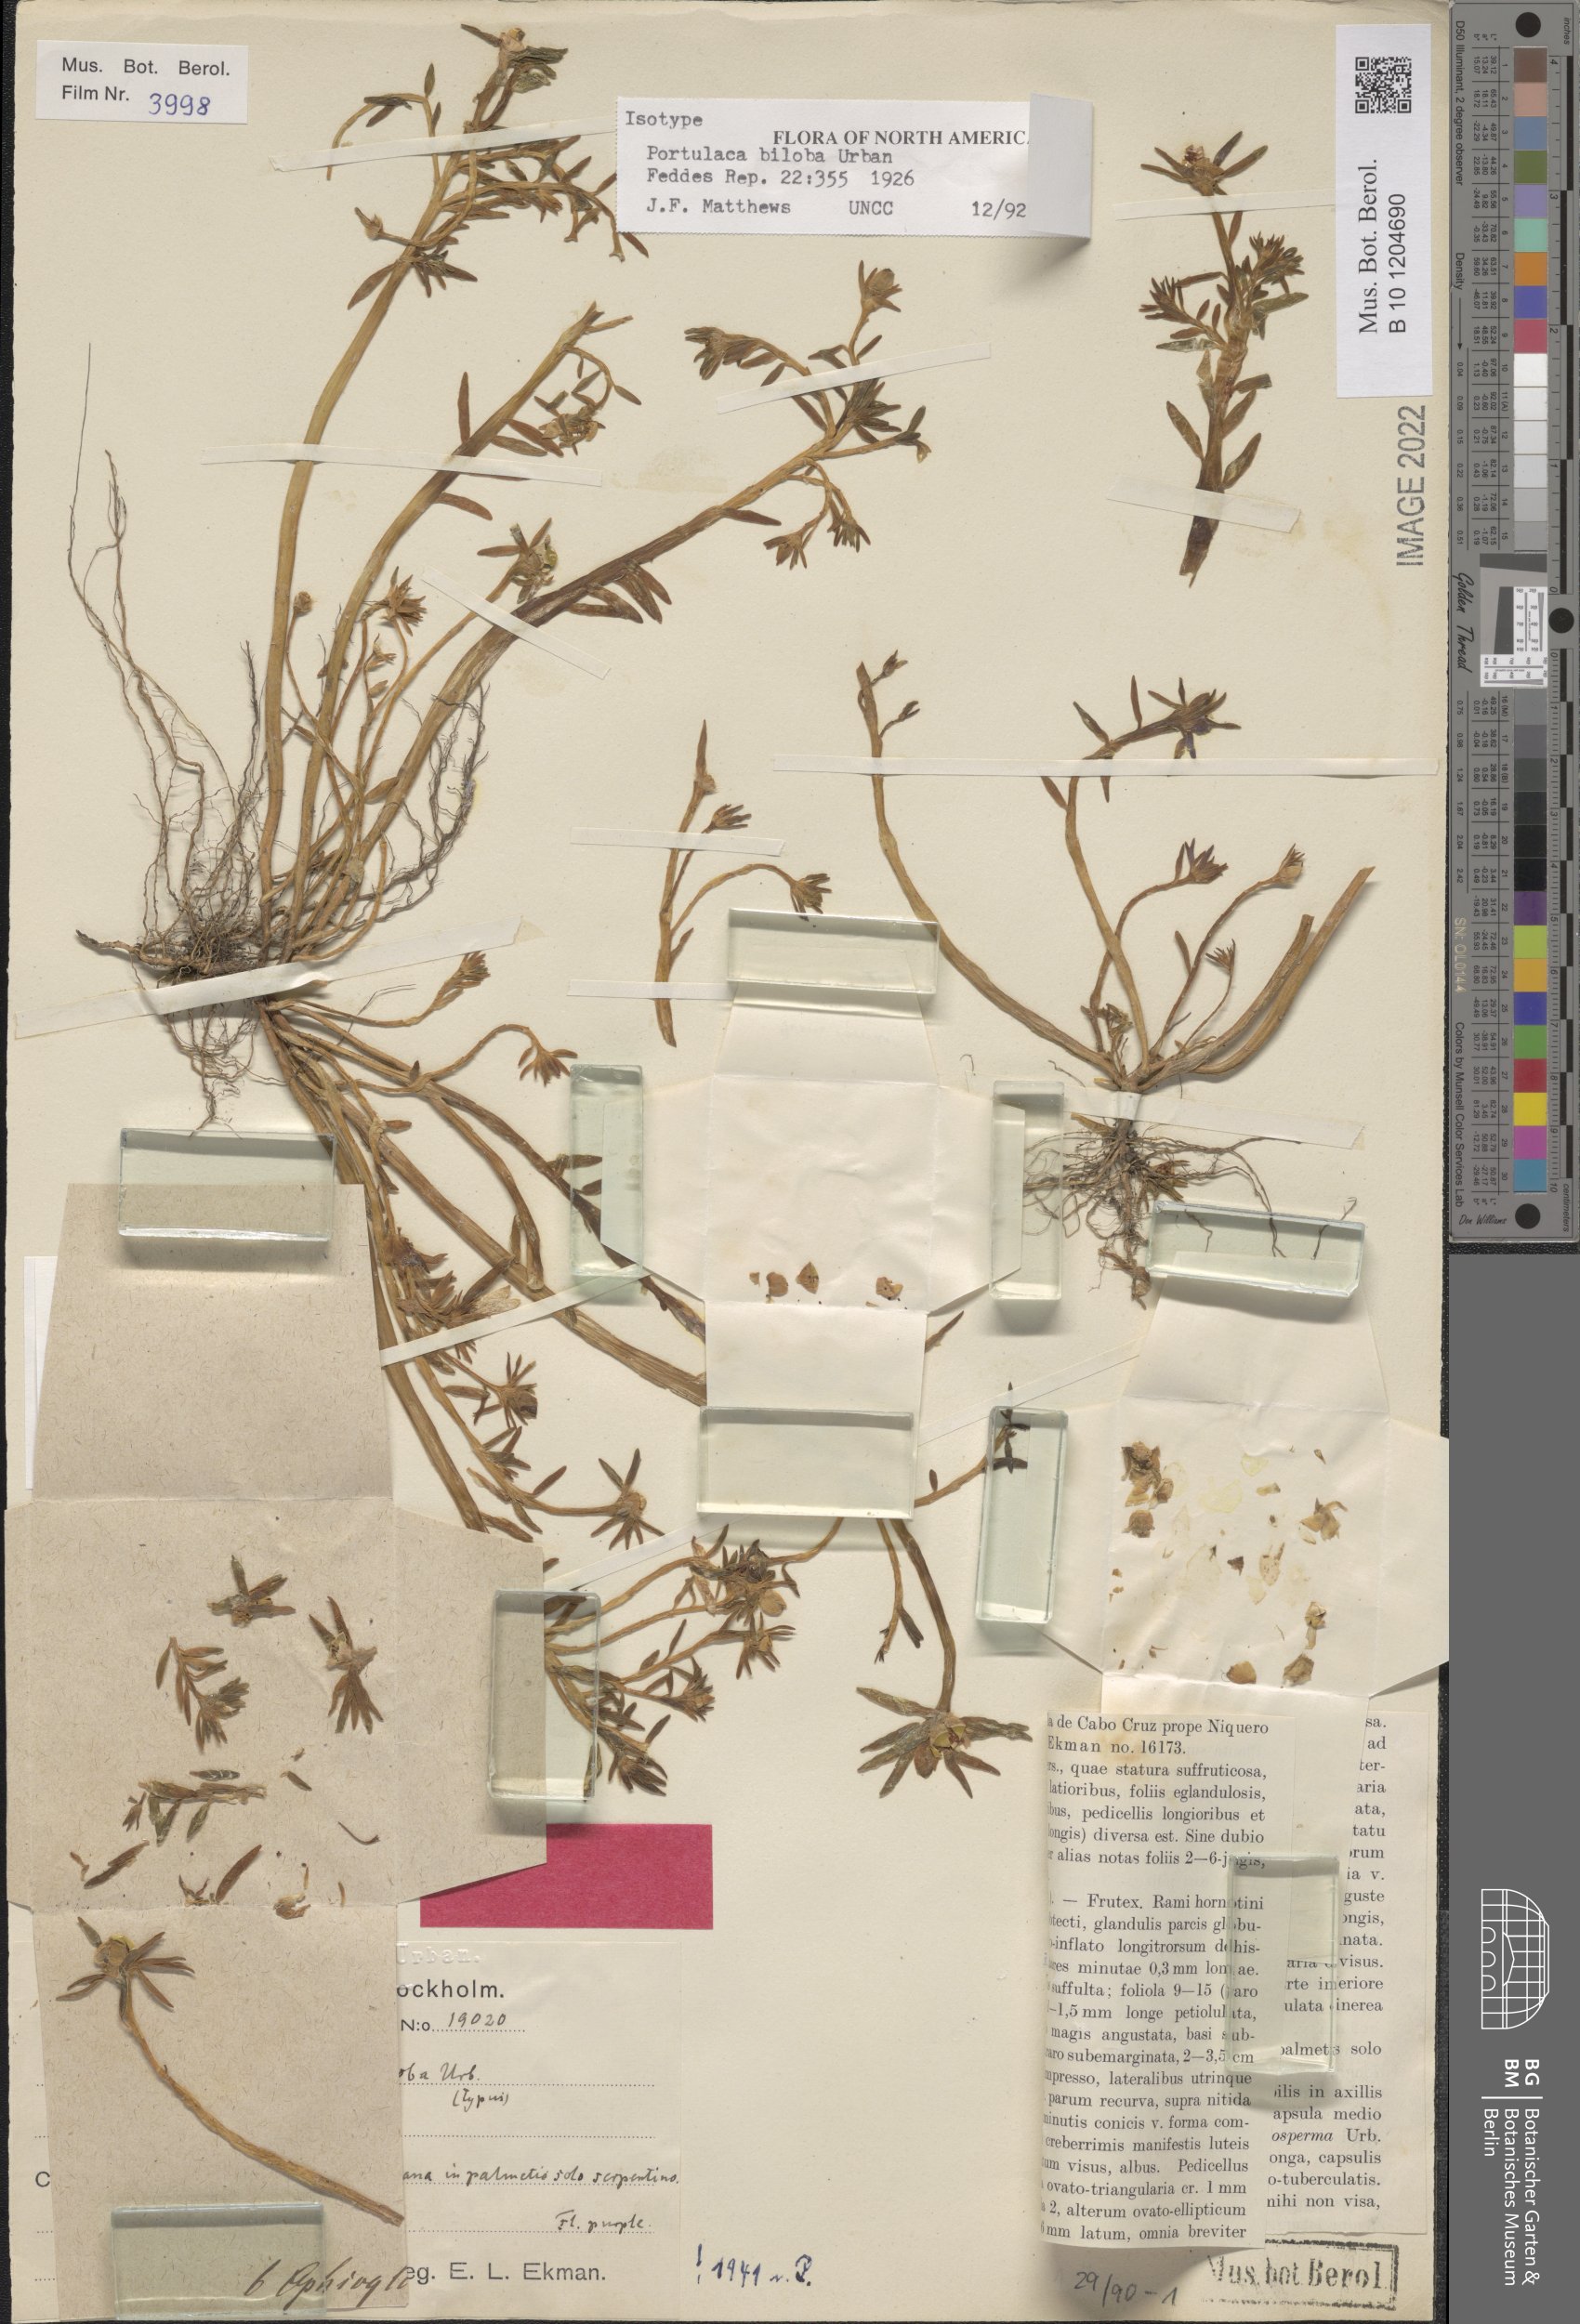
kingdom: Plantae
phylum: Tracheophyta
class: Magnoliopsida
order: Caryophyllales
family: Portulacaceae
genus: Portulaca
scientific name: Portulaca biloba
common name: Cuban purslane
